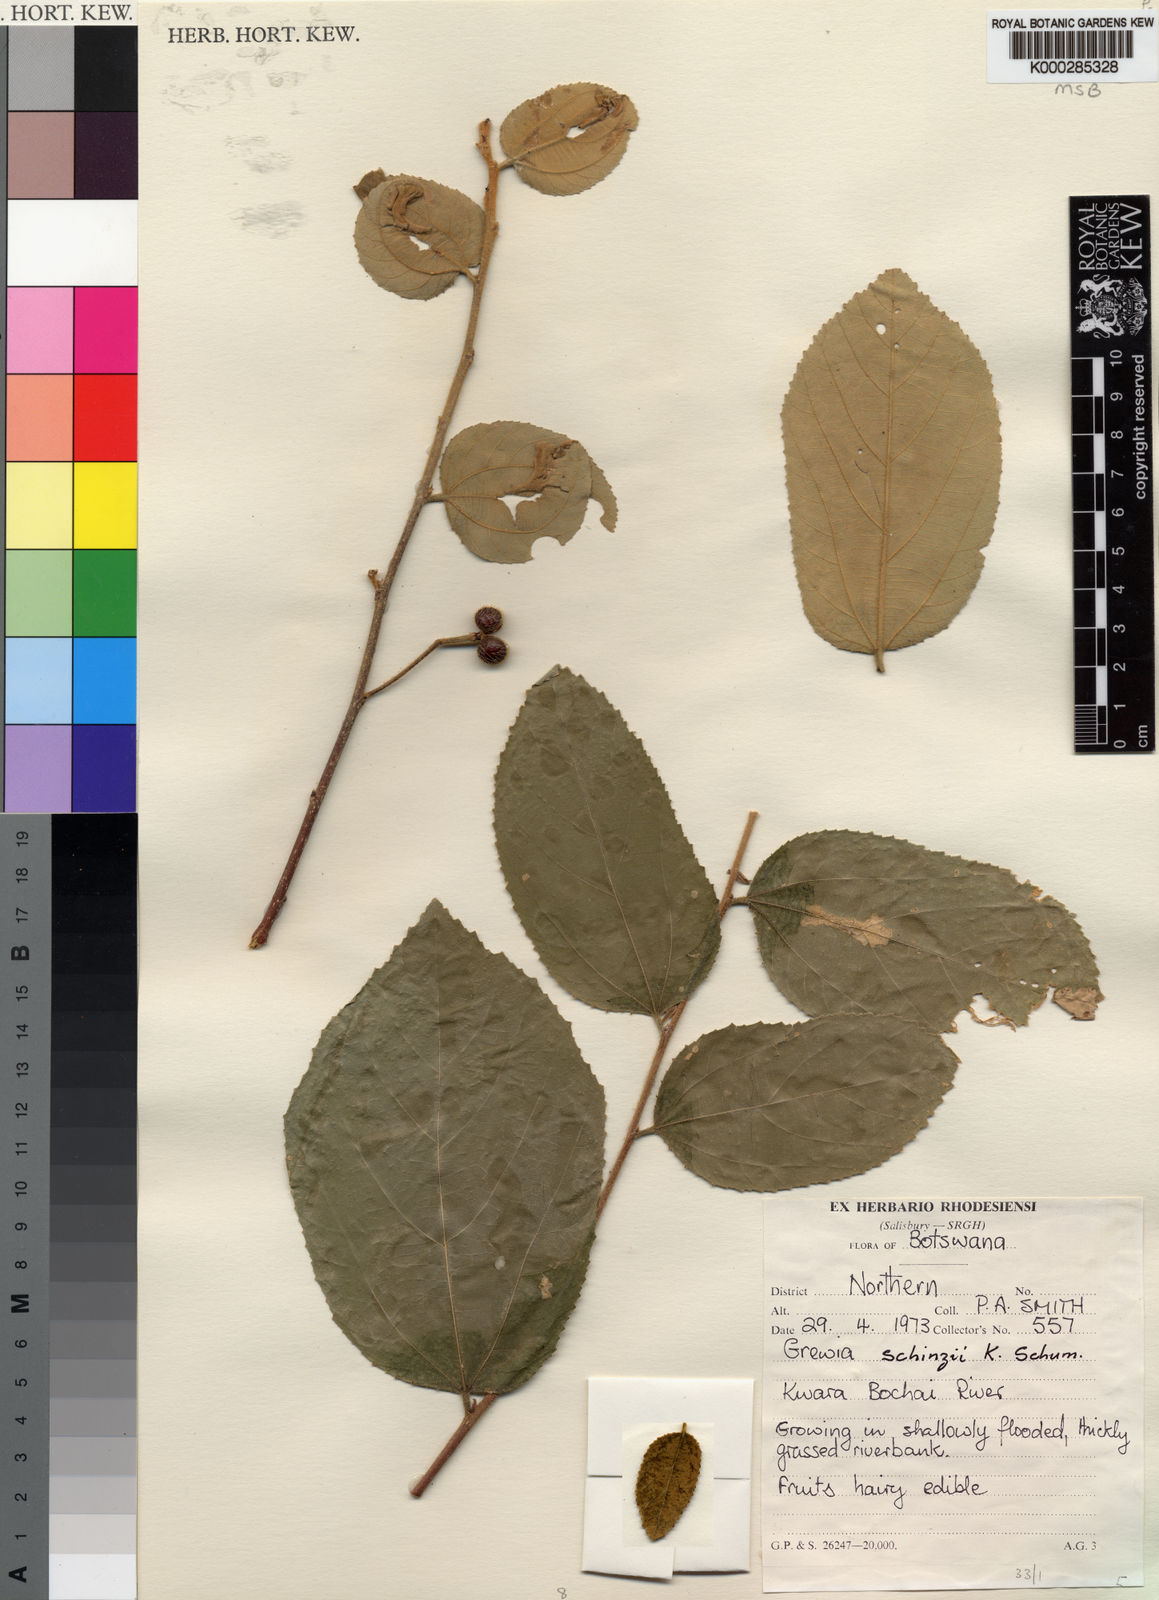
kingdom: Plantae
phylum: Tracheophyta
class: Magnoliopsida
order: Malvales
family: Malvaceae
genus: Grewia
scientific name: Grewia schinzii
